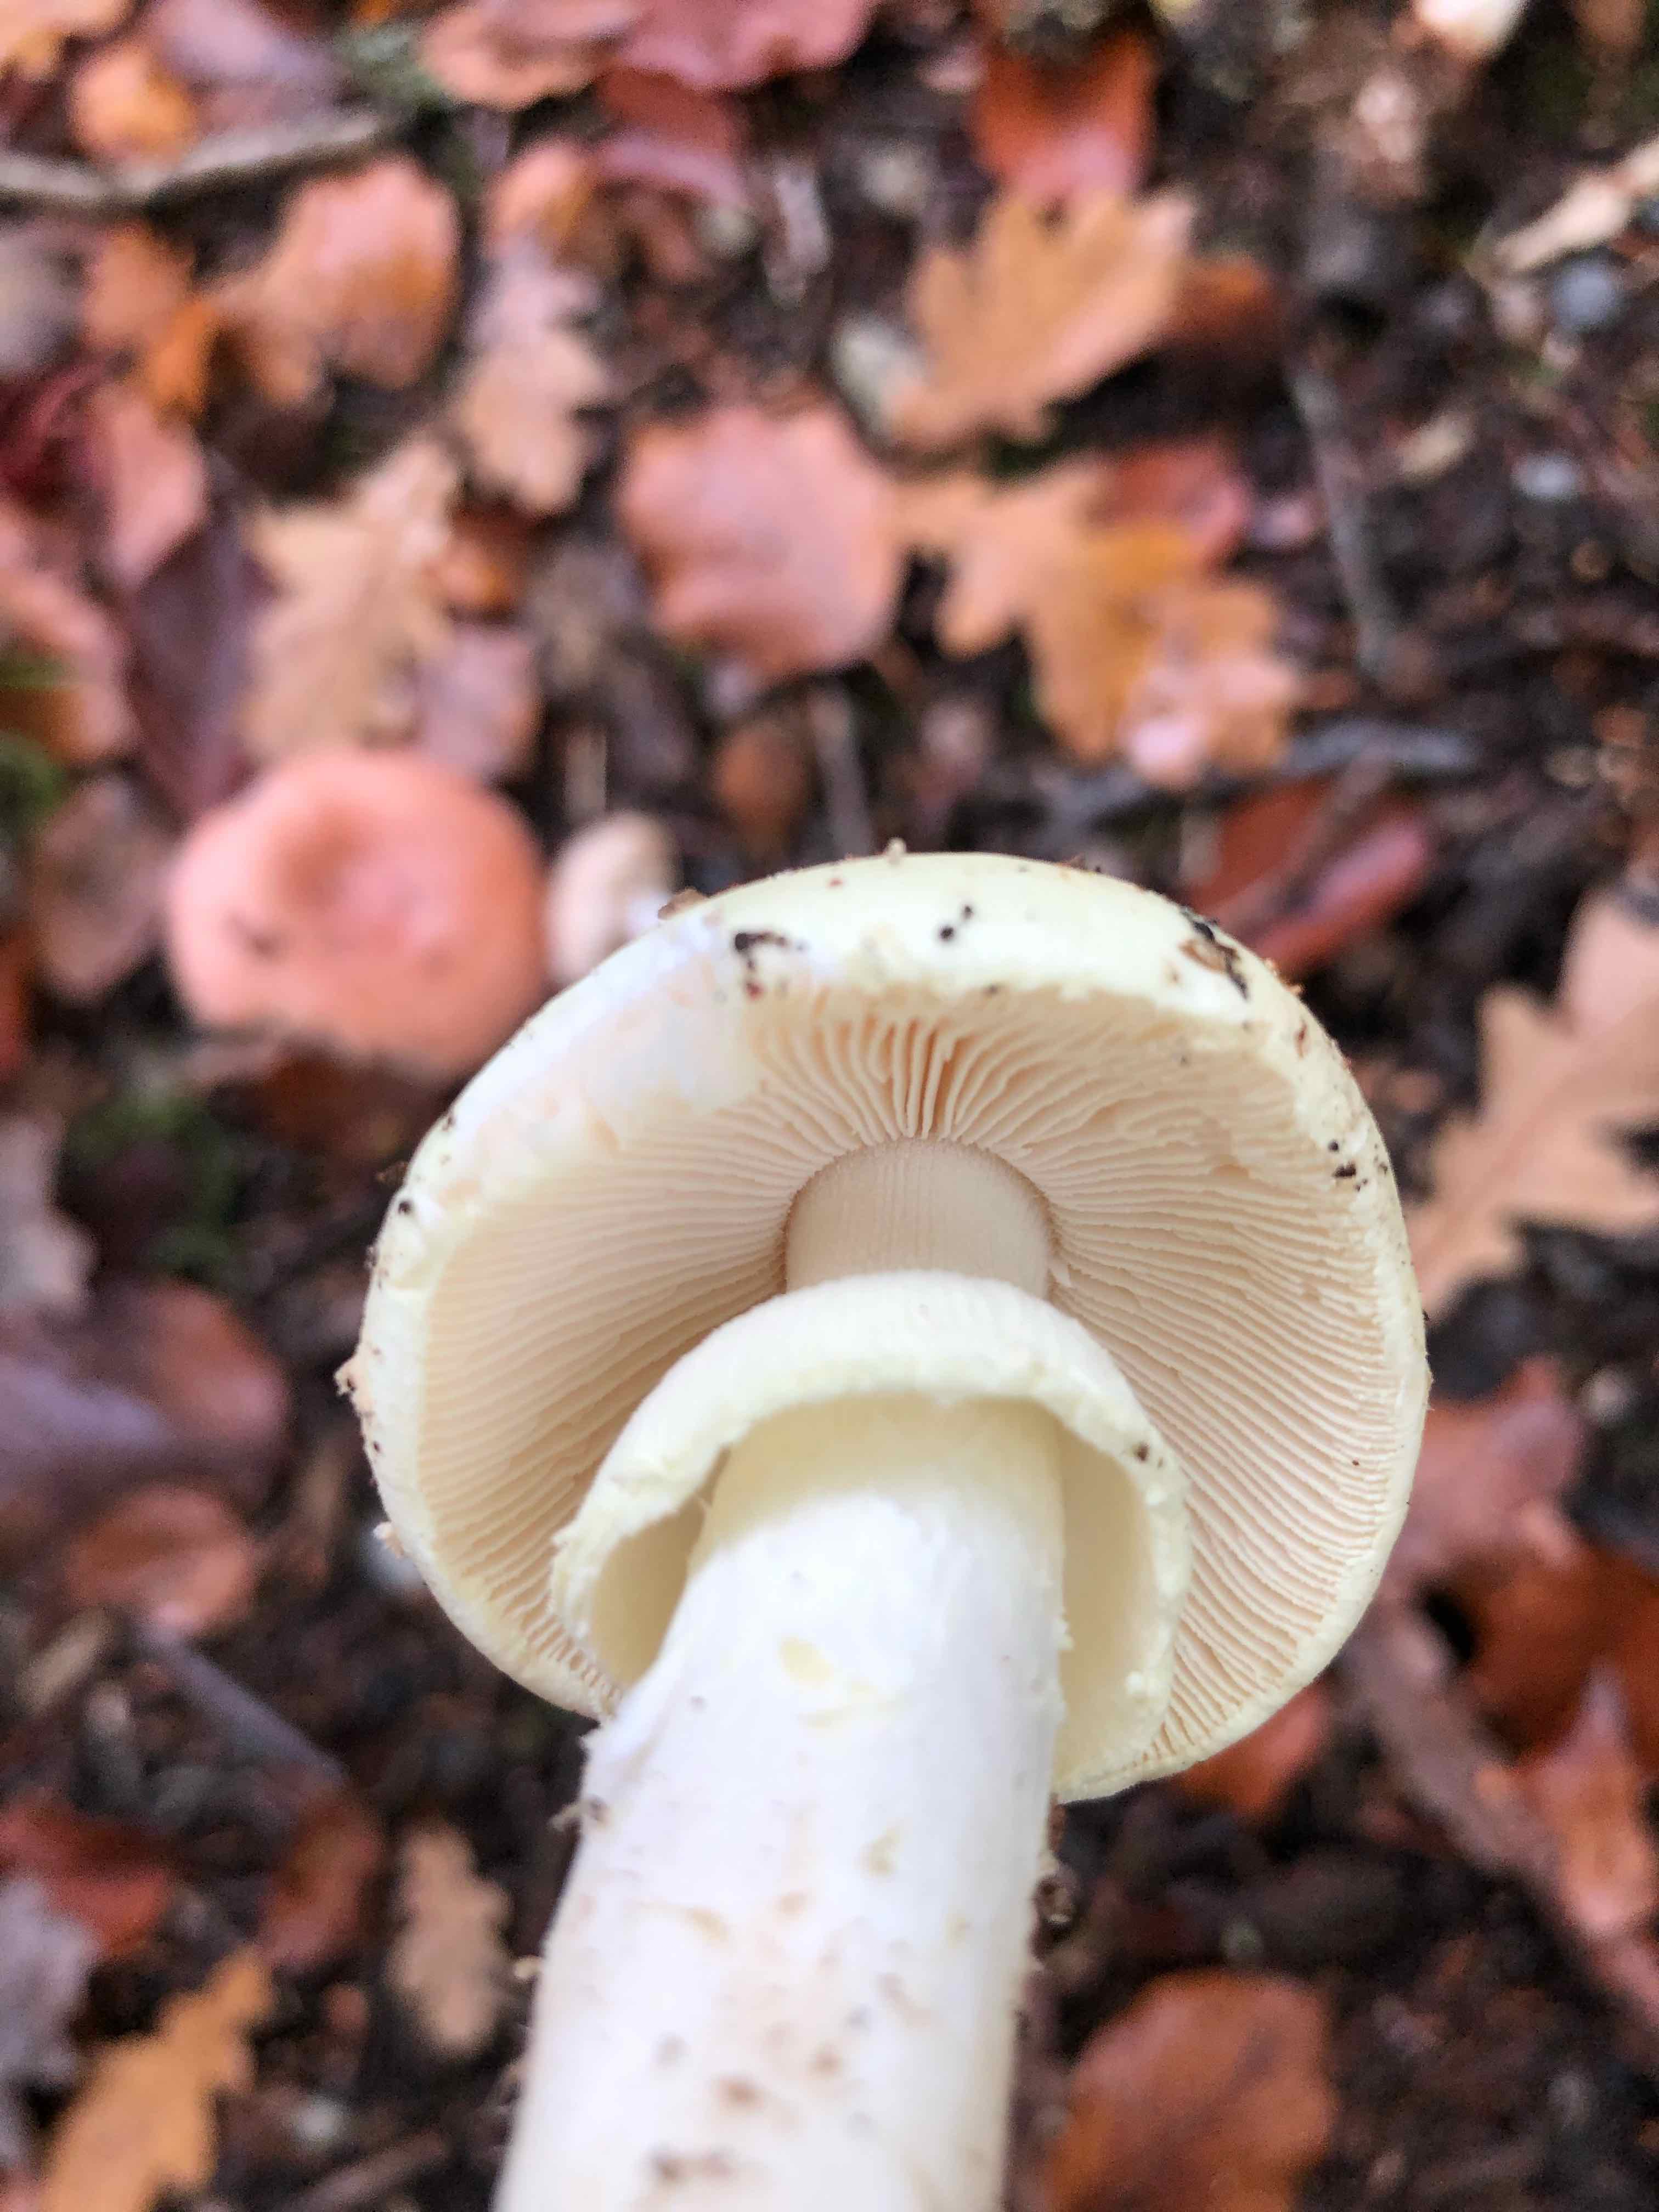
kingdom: Fungi
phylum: Basidiomycota
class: Agaricomycetes
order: Agaricales
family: Amanitaceae
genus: Amanita
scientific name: Amanita citrina
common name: kugleknoldet fluesvamp
